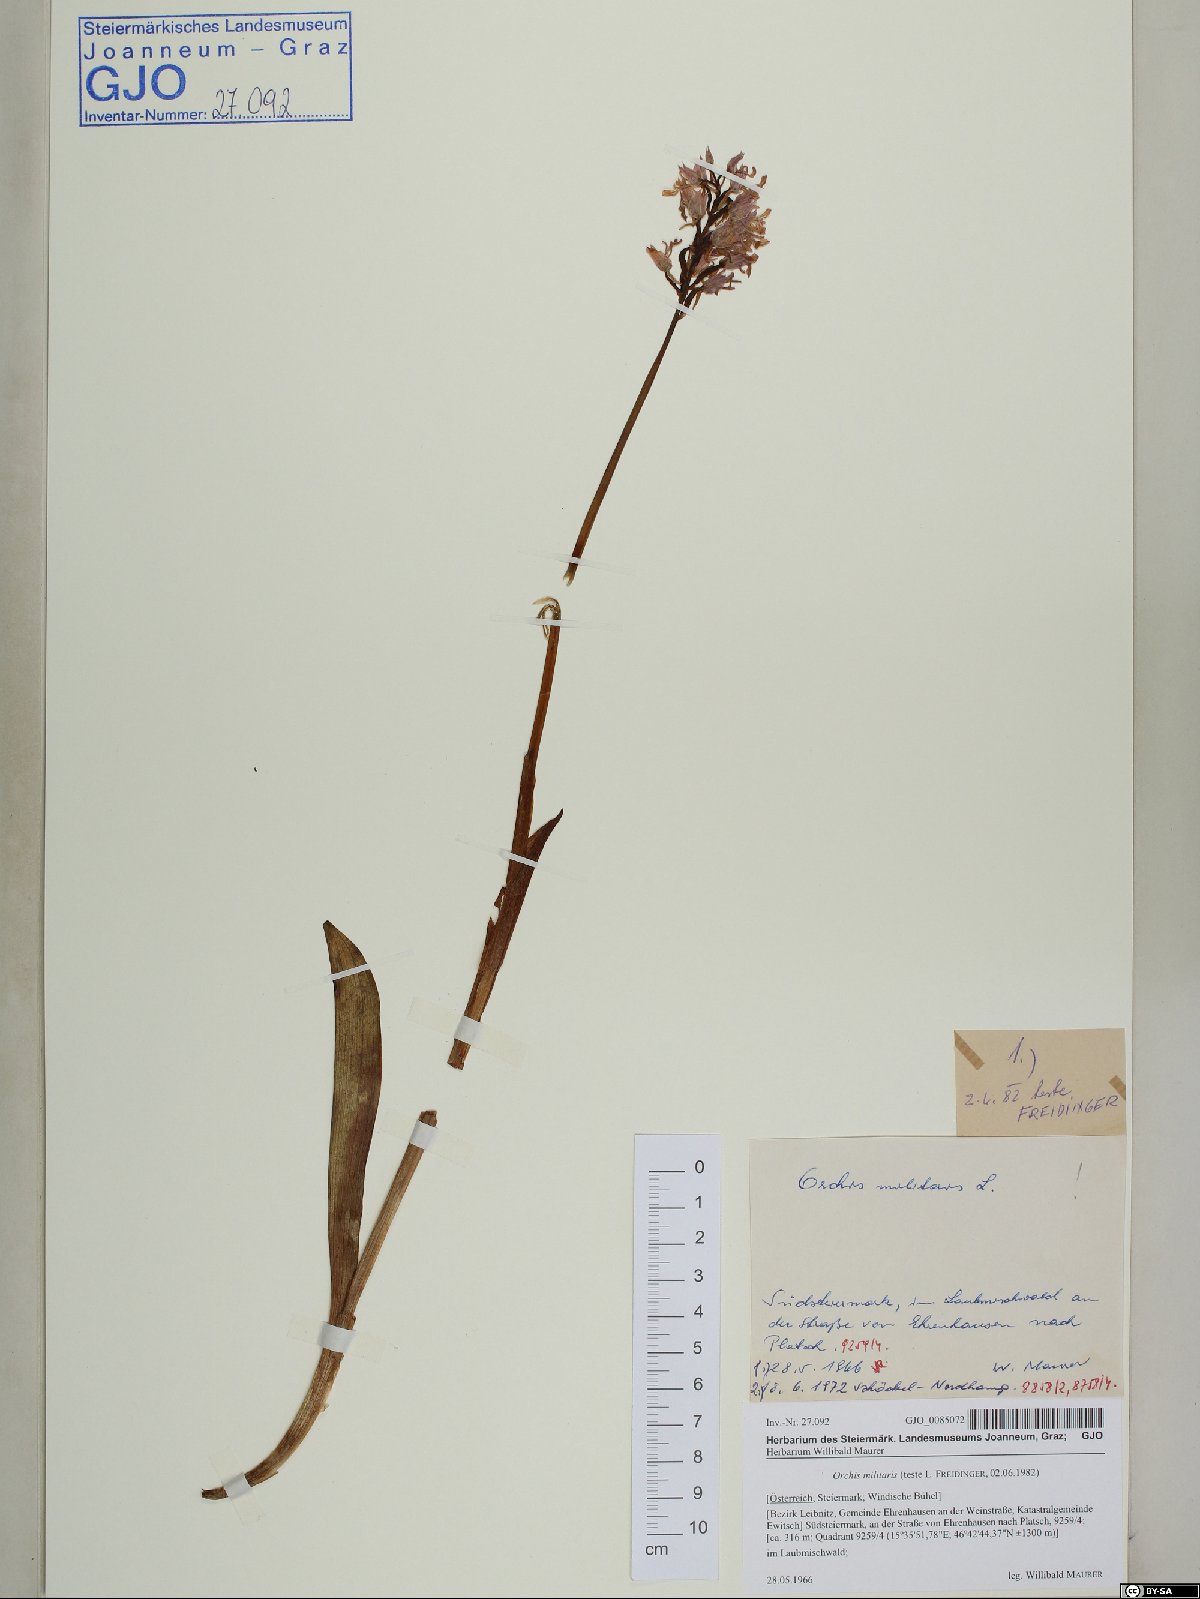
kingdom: Plantae
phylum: Tracheophyta
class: Liliopsida
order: Asparagales
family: Orchidaceae
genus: Orchis
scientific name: Orchis militaris
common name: Military orchid
